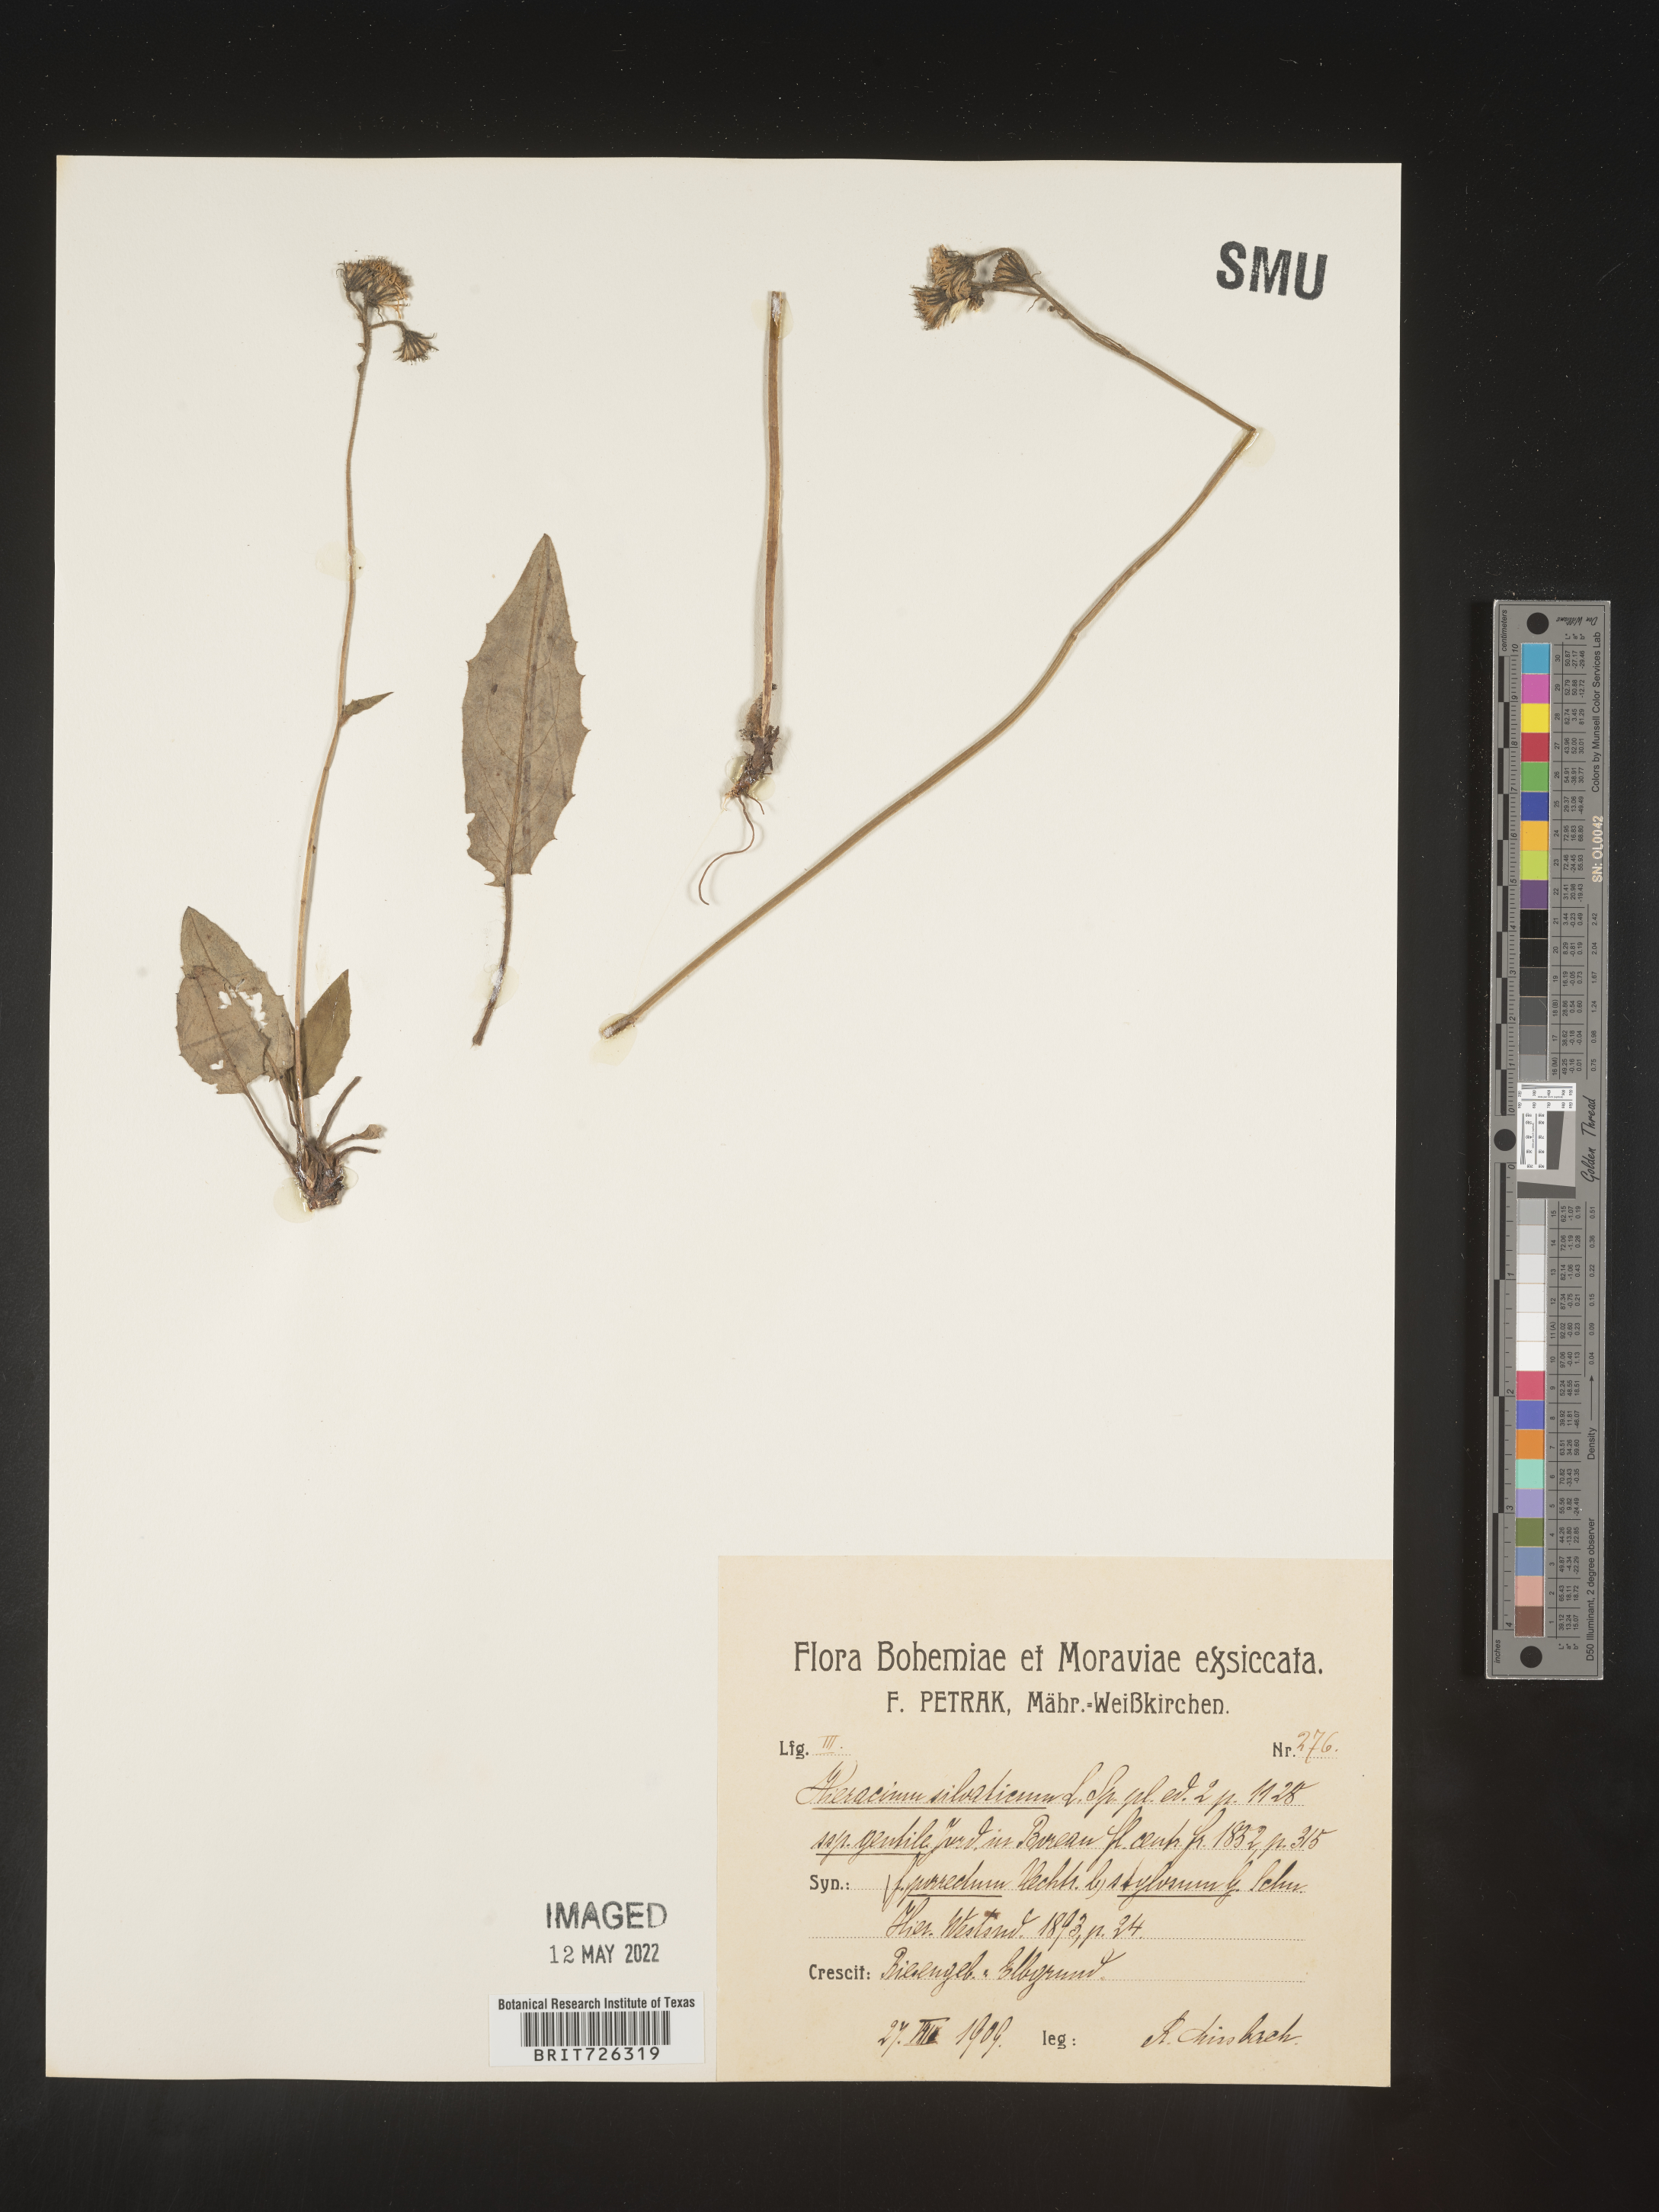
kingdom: Plantae
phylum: Tracheophyta
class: Magnoliopsida
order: Asterales
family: Asteraceae
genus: Hieracium
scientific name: Hieracium
